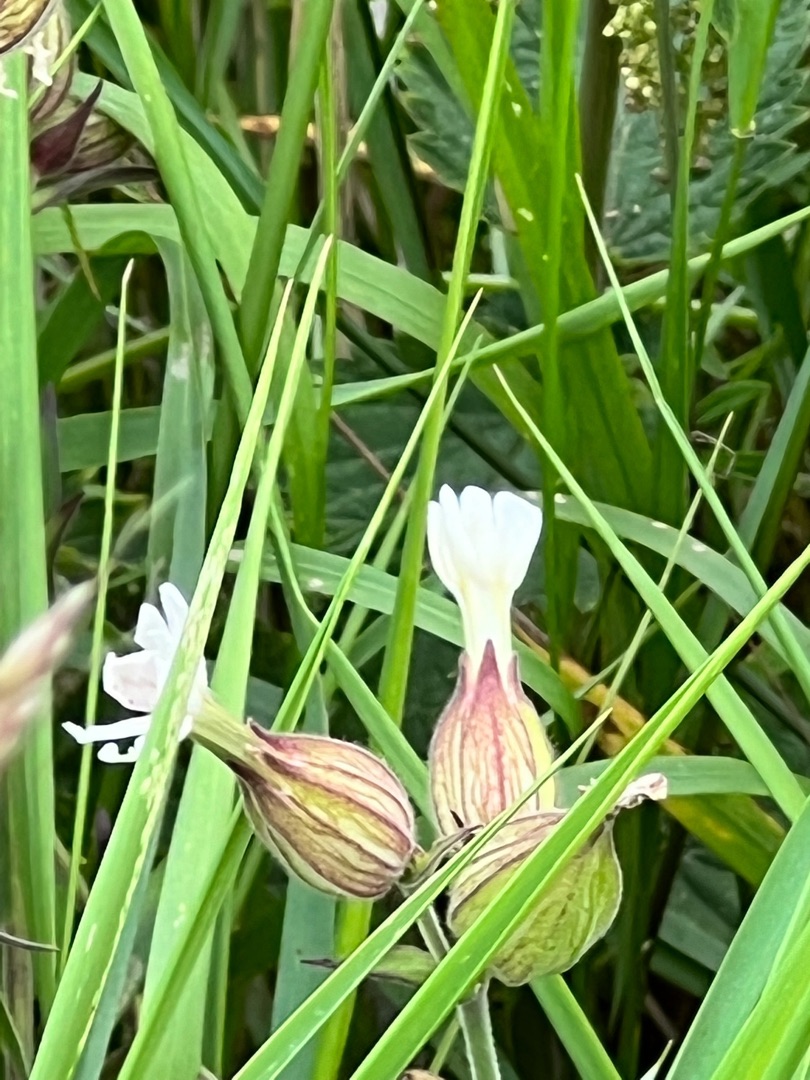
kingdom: Plantae
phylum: Tracheophyta
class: Magnoliopsida
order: Caryophyllales
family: Caryophyllaceae
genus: Silene
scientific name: Silene latifolia
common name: Aftenpragtstjerne
